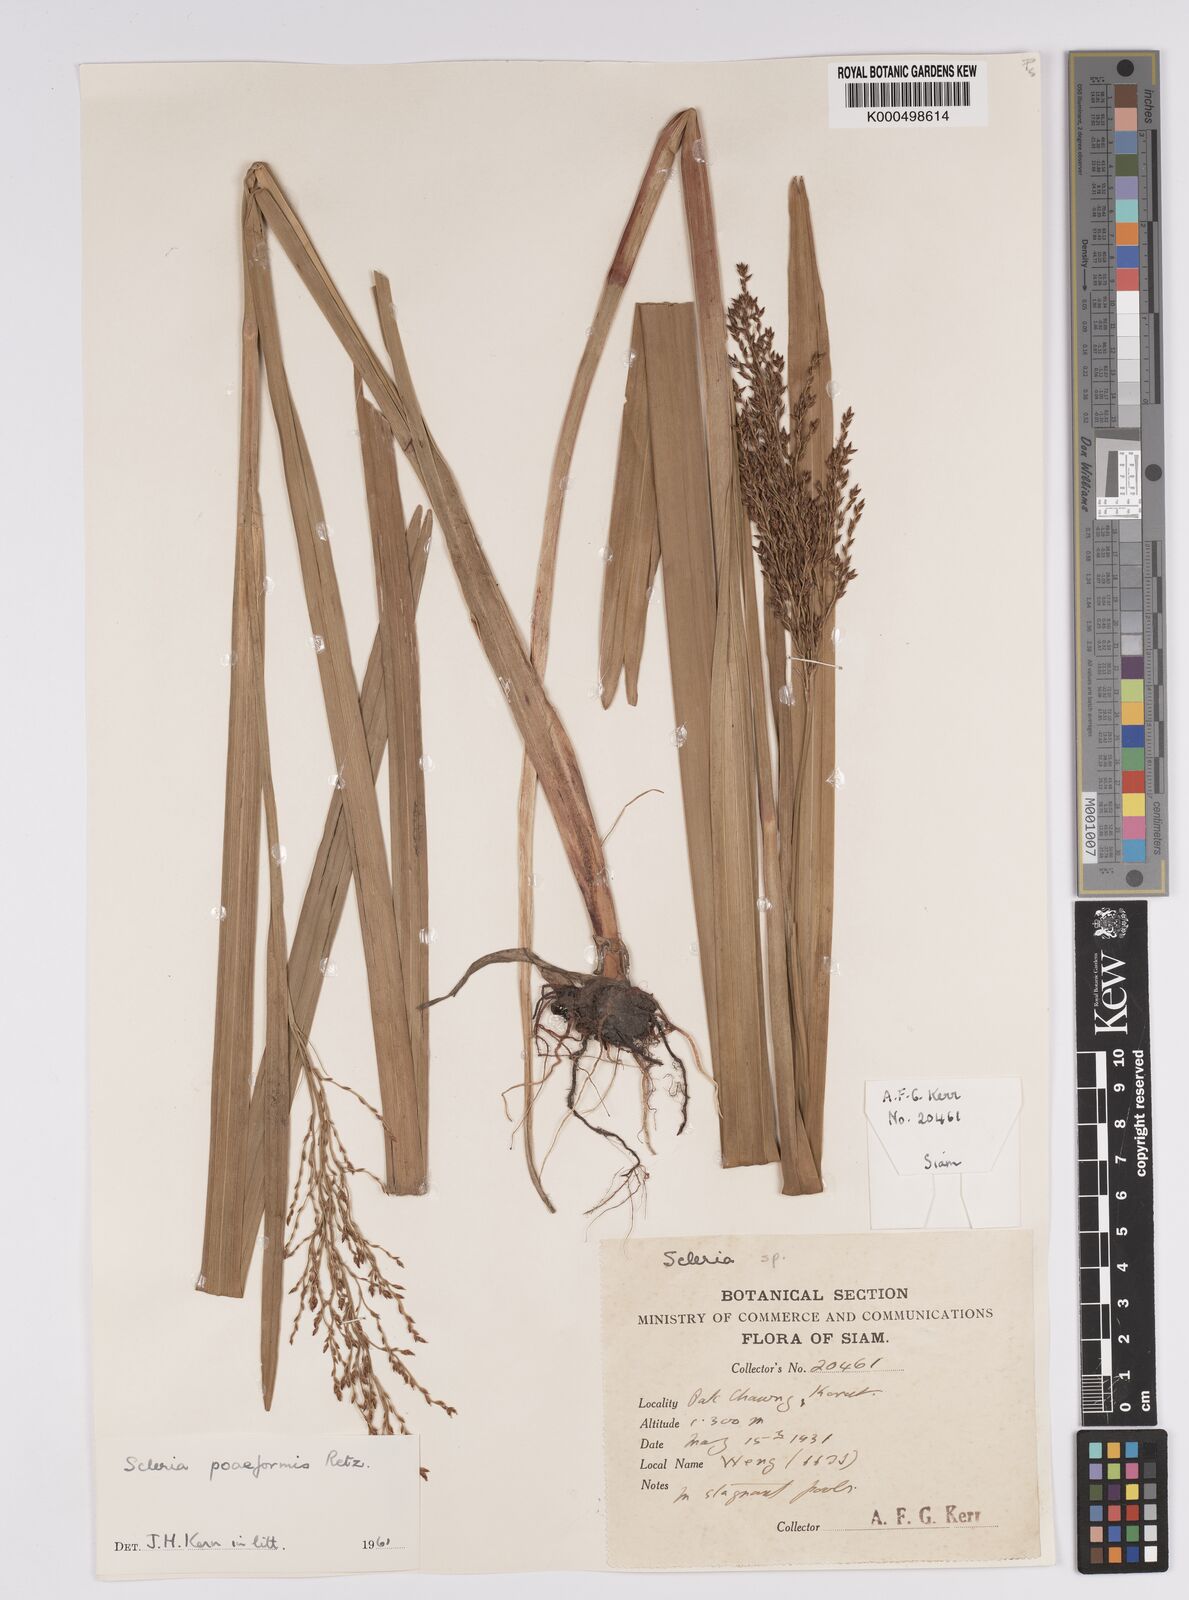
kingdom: Plantae
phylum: Tracheophyta
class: Liliopsida
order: Poales
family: Cyperaceae
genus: Scleria
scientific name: Scleria poiformis
